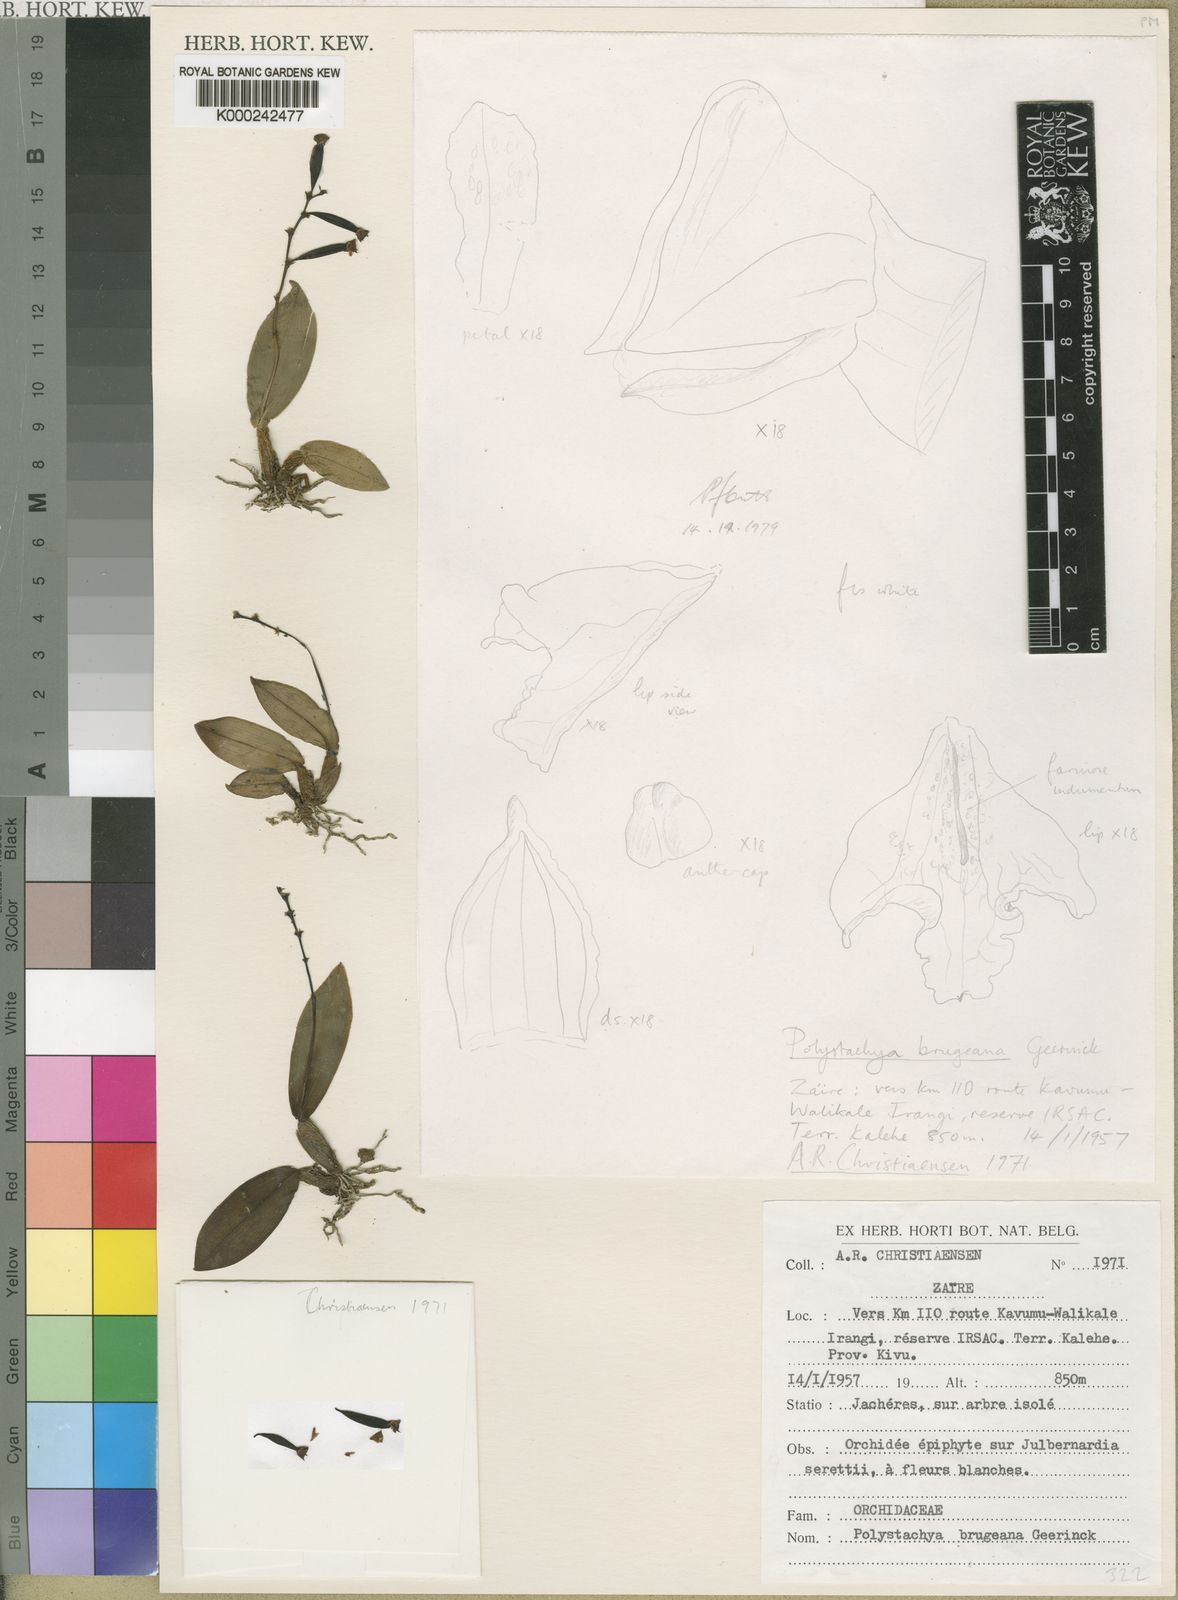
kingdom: Plantae
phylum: Tracheophyta
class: Liliopsida
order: Asparagales
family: Orchidaceae
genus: Polystachya
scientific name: Polystachya brugeana
